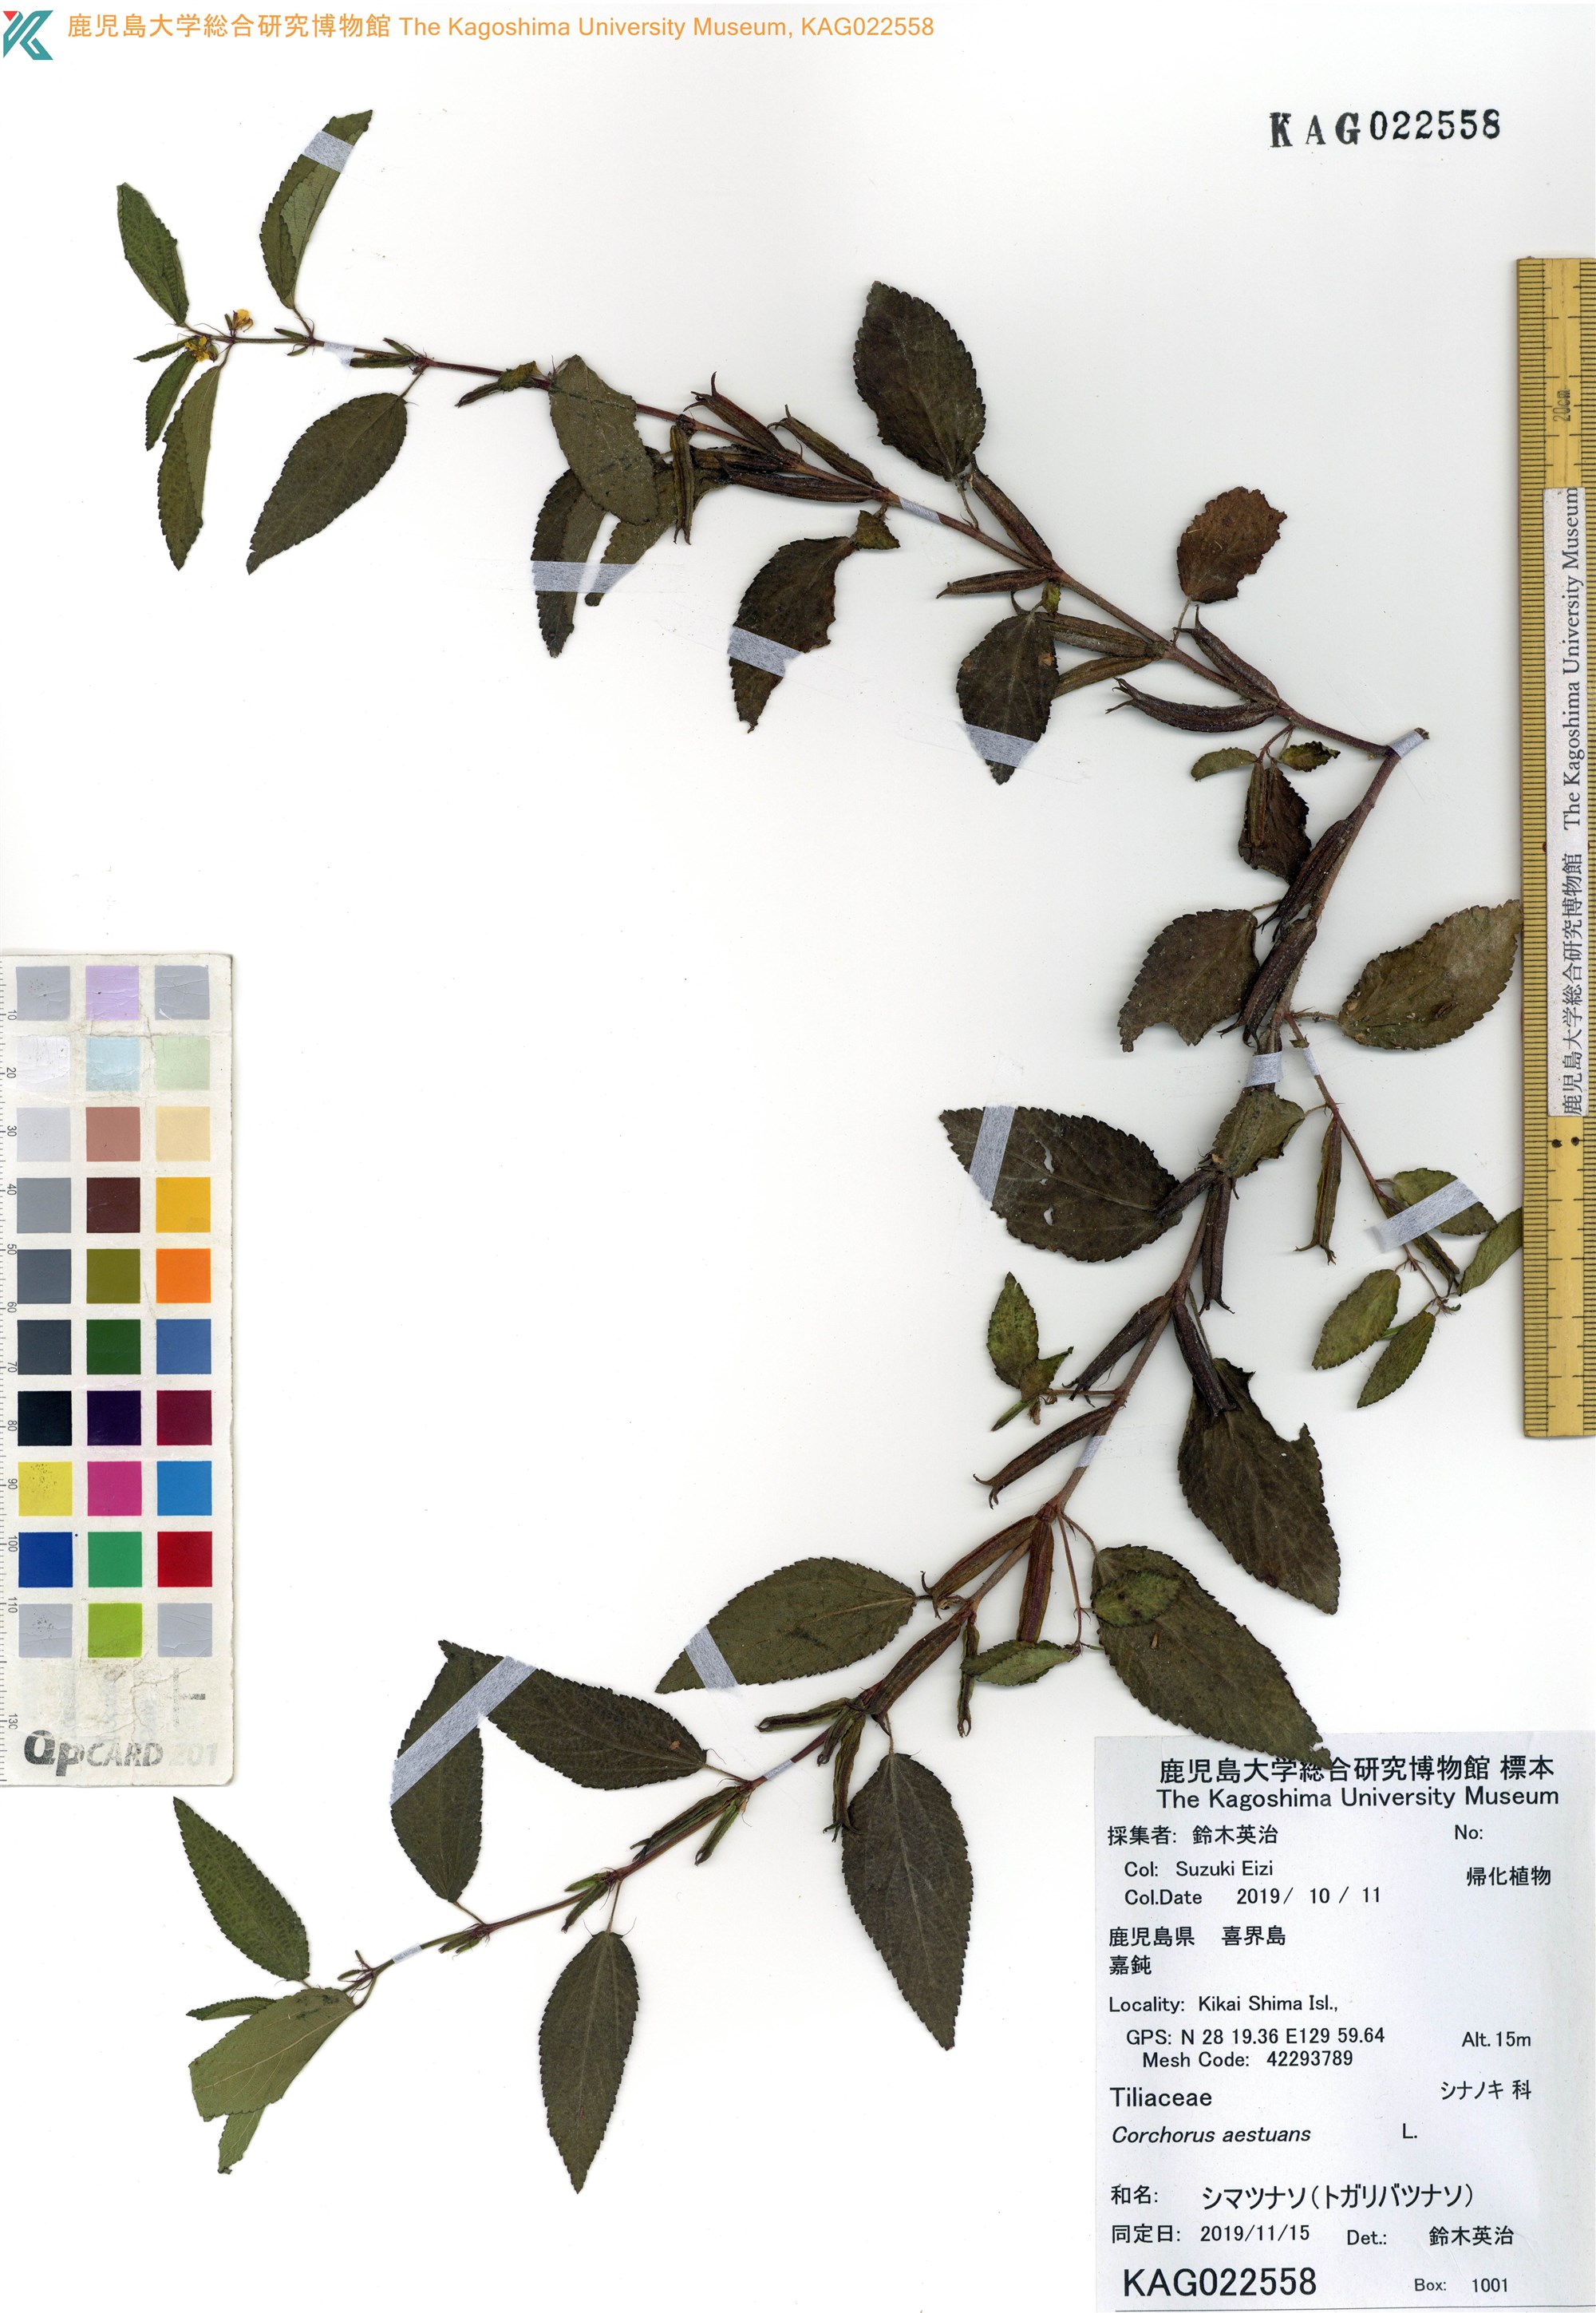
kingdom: Plantae
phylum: Tracheophyta
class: Magnoliopsida
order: Malvales
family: Malvaceae
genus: Corchorus
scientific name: Corchorus aestuans
